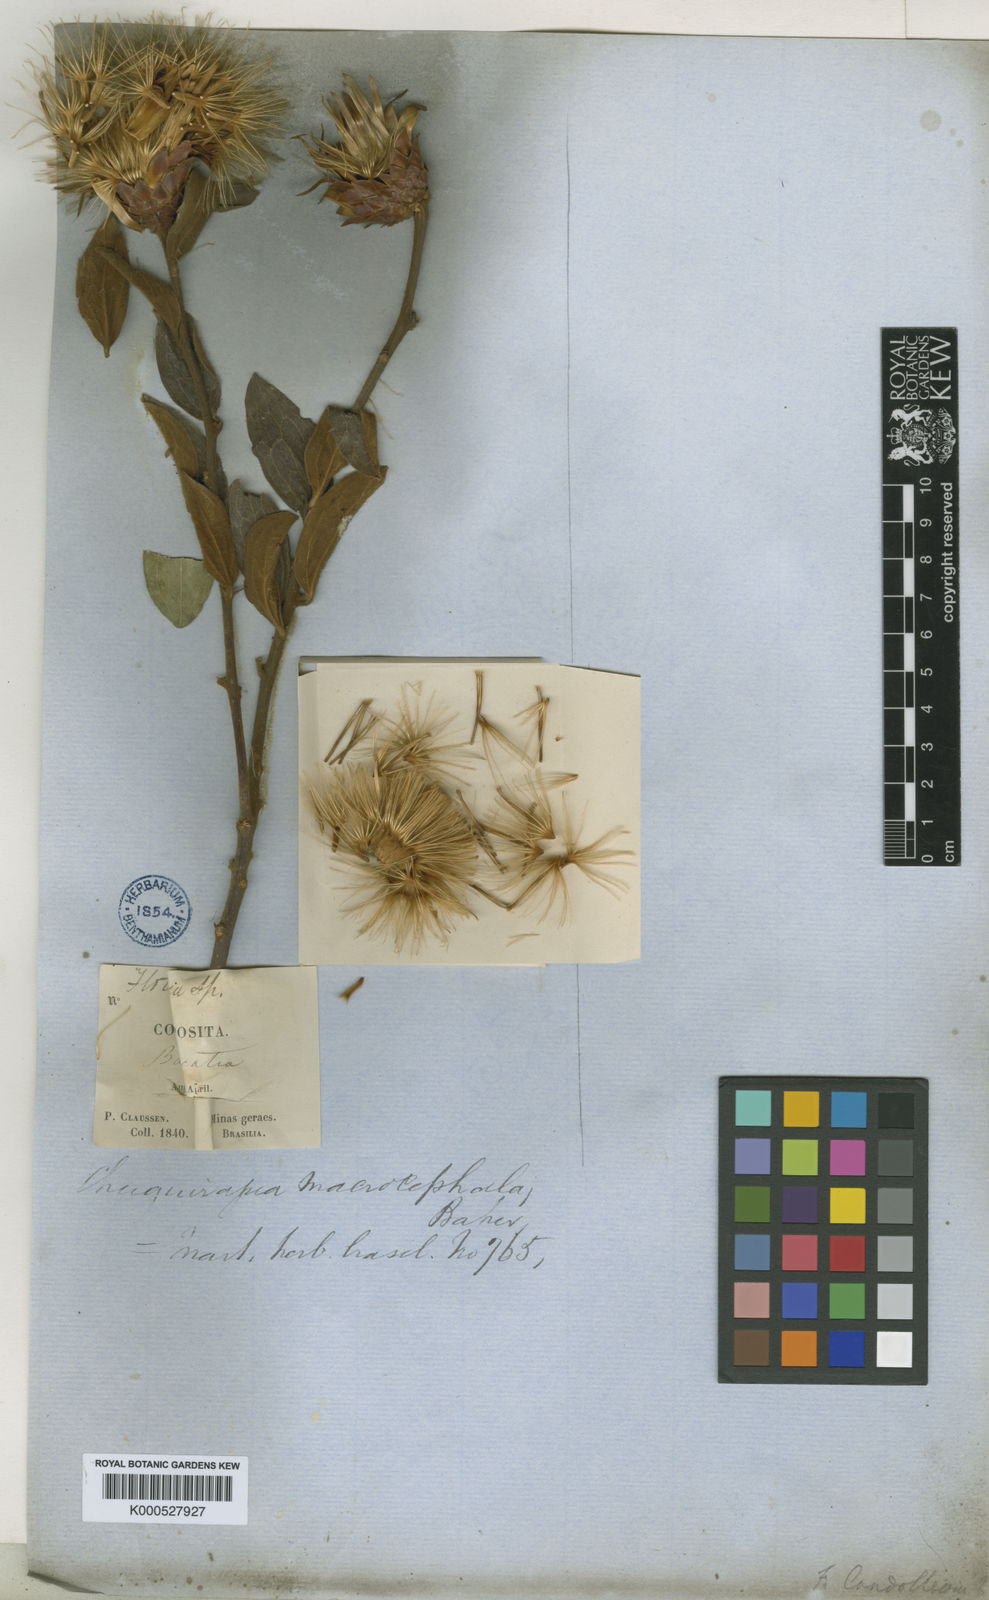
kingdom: Plantae
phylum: Tracheophyta
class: Magnoliopsida
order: Asterales
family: Asteraceae
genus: Dasyphyllum
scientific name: Dasyphyllum velutinum
